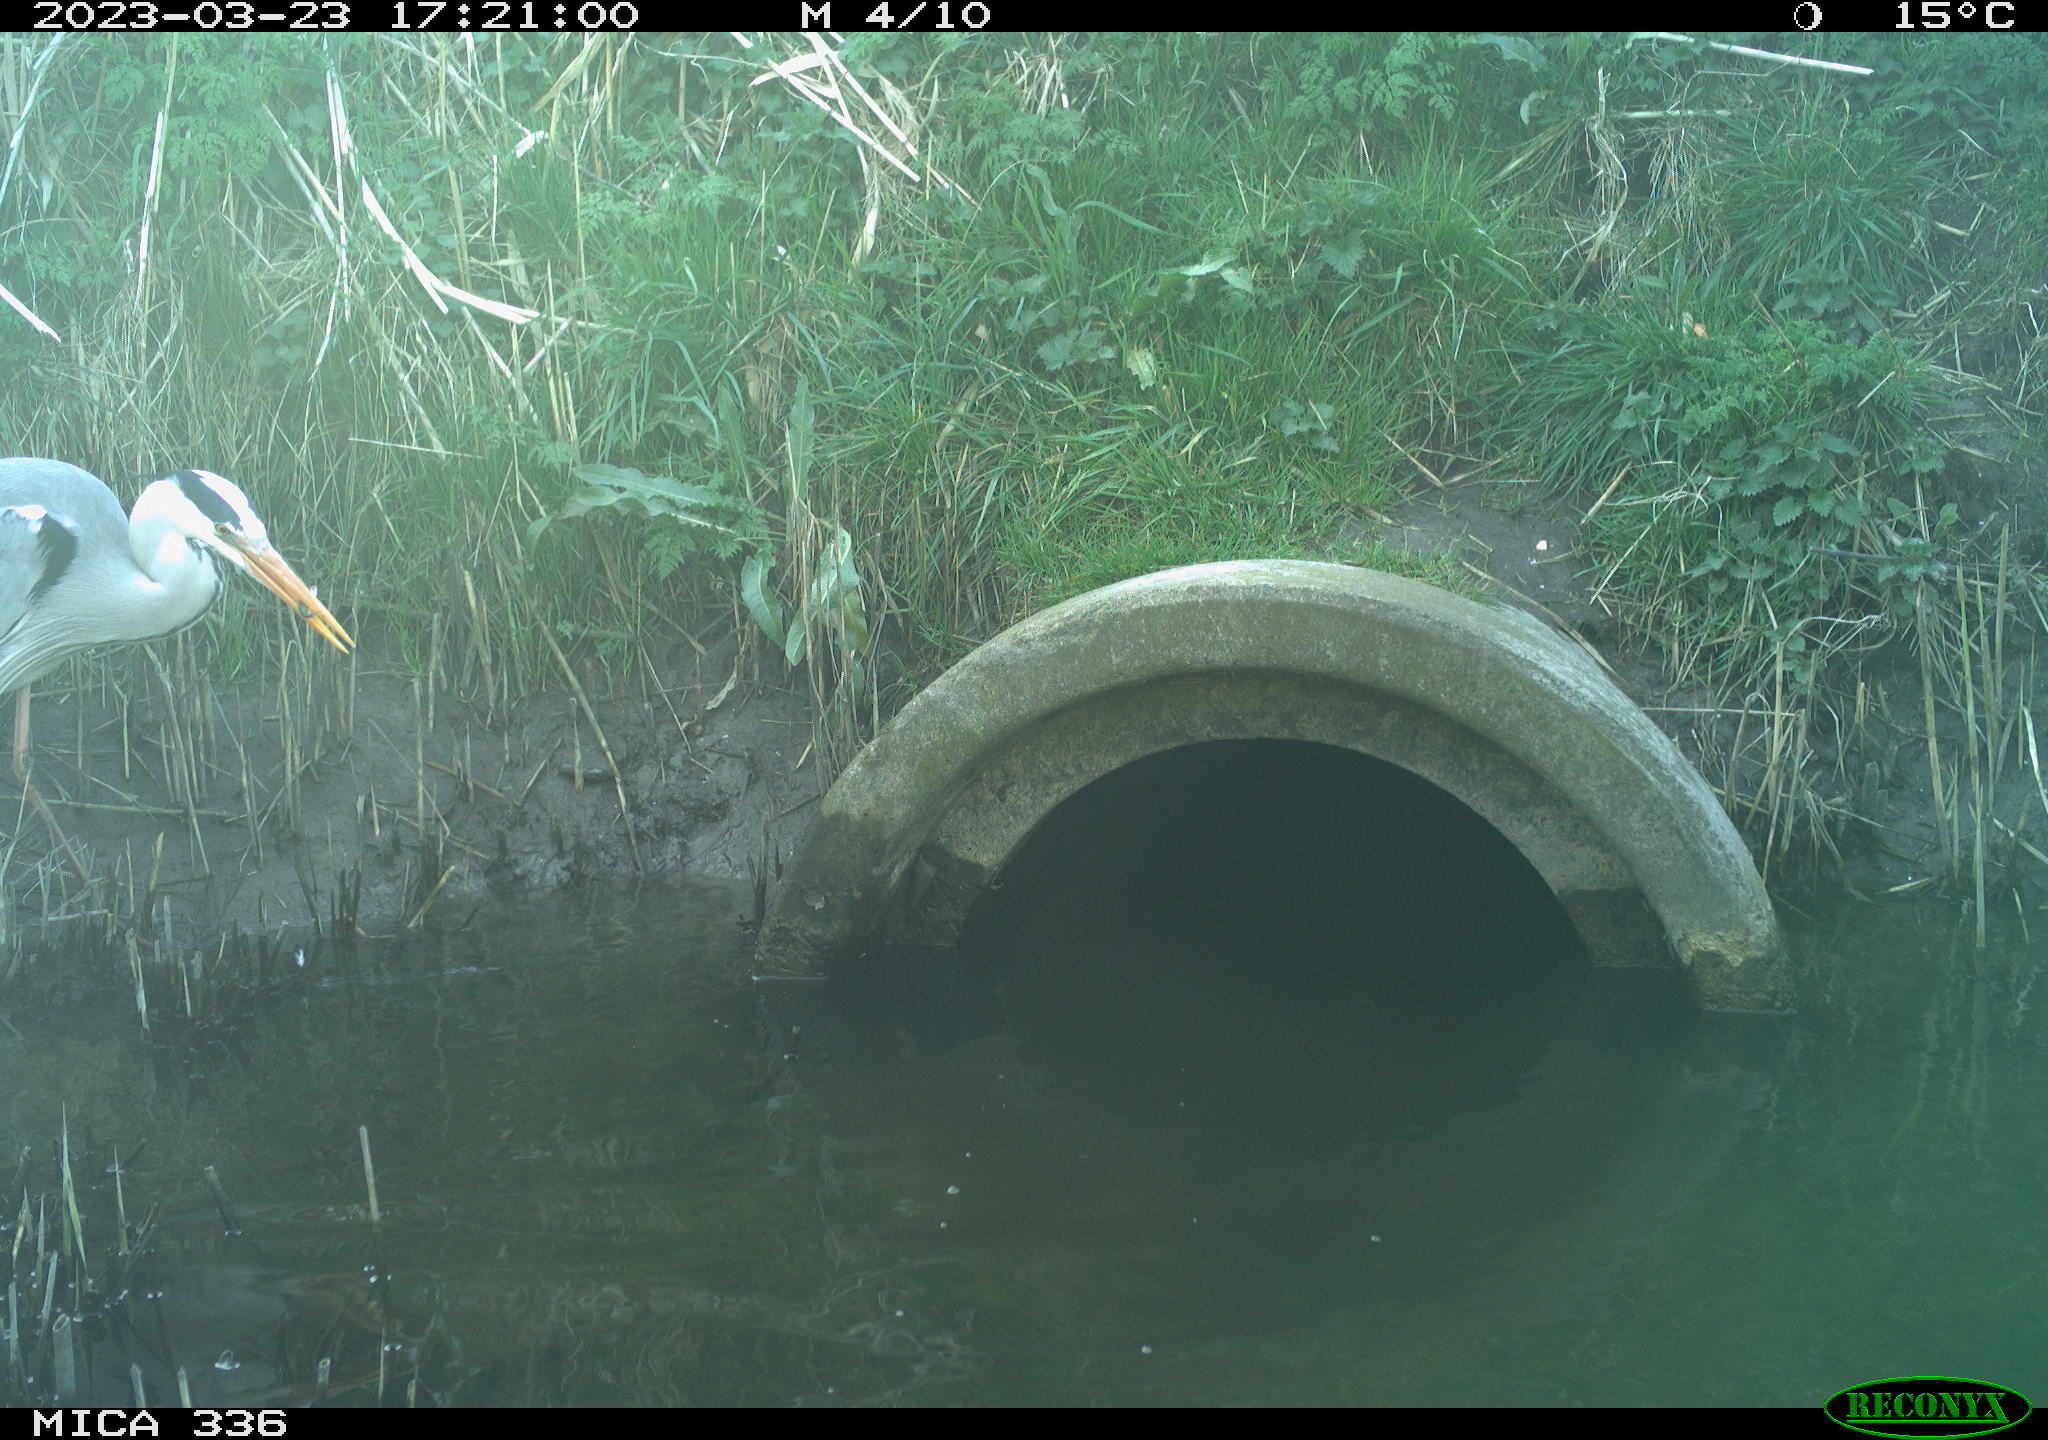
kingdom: Animalia
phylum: Chordata
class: Aves
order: Pelecaniformes
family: Ardeidae
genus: Ardea
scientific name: Ardea cinerea
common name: Grey heron
